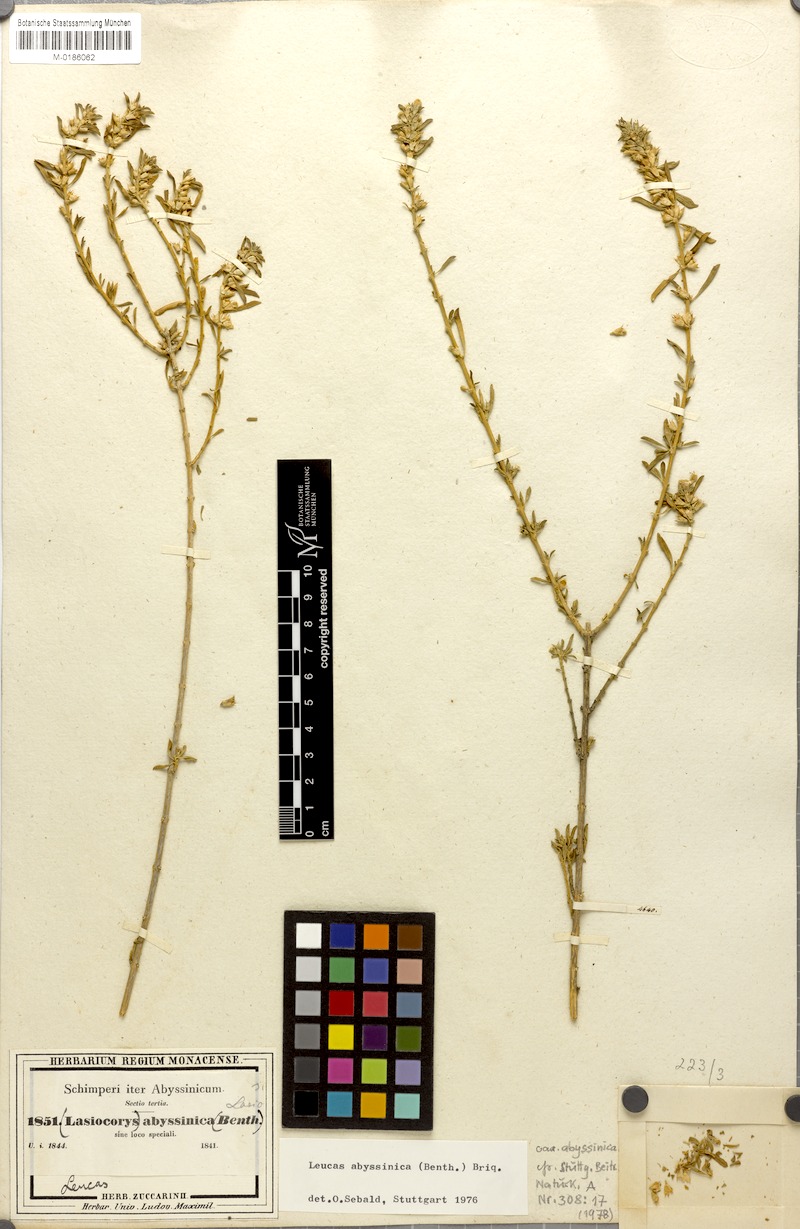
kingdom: Plantae
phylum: Tracheophyta
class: Magnoliopsida
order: Lamiales
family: Lamiaceae
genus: Leucas
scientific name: Leucas abyssinica
